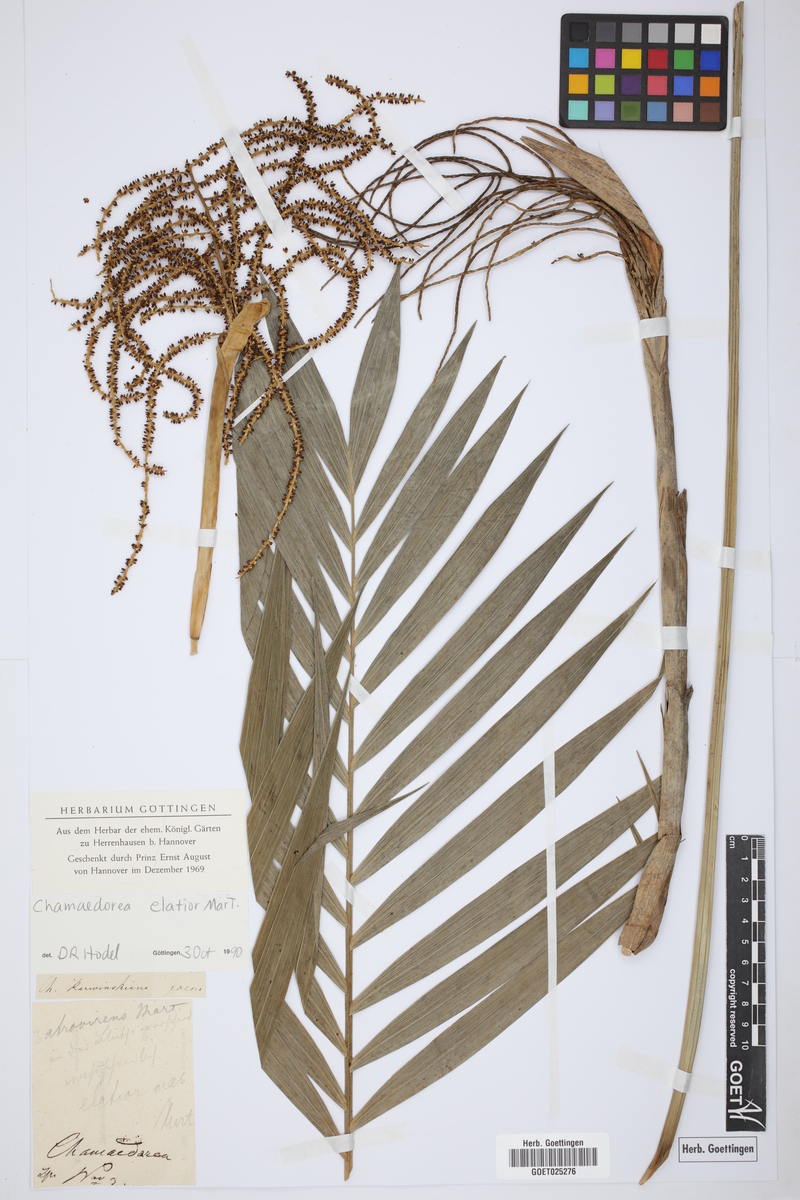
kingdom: Plantae
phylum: Tracheophyta
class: Liliopsida
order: Arecales
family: Arecaceae
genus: Chamaedorea
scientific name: Chamaedorea elatior
